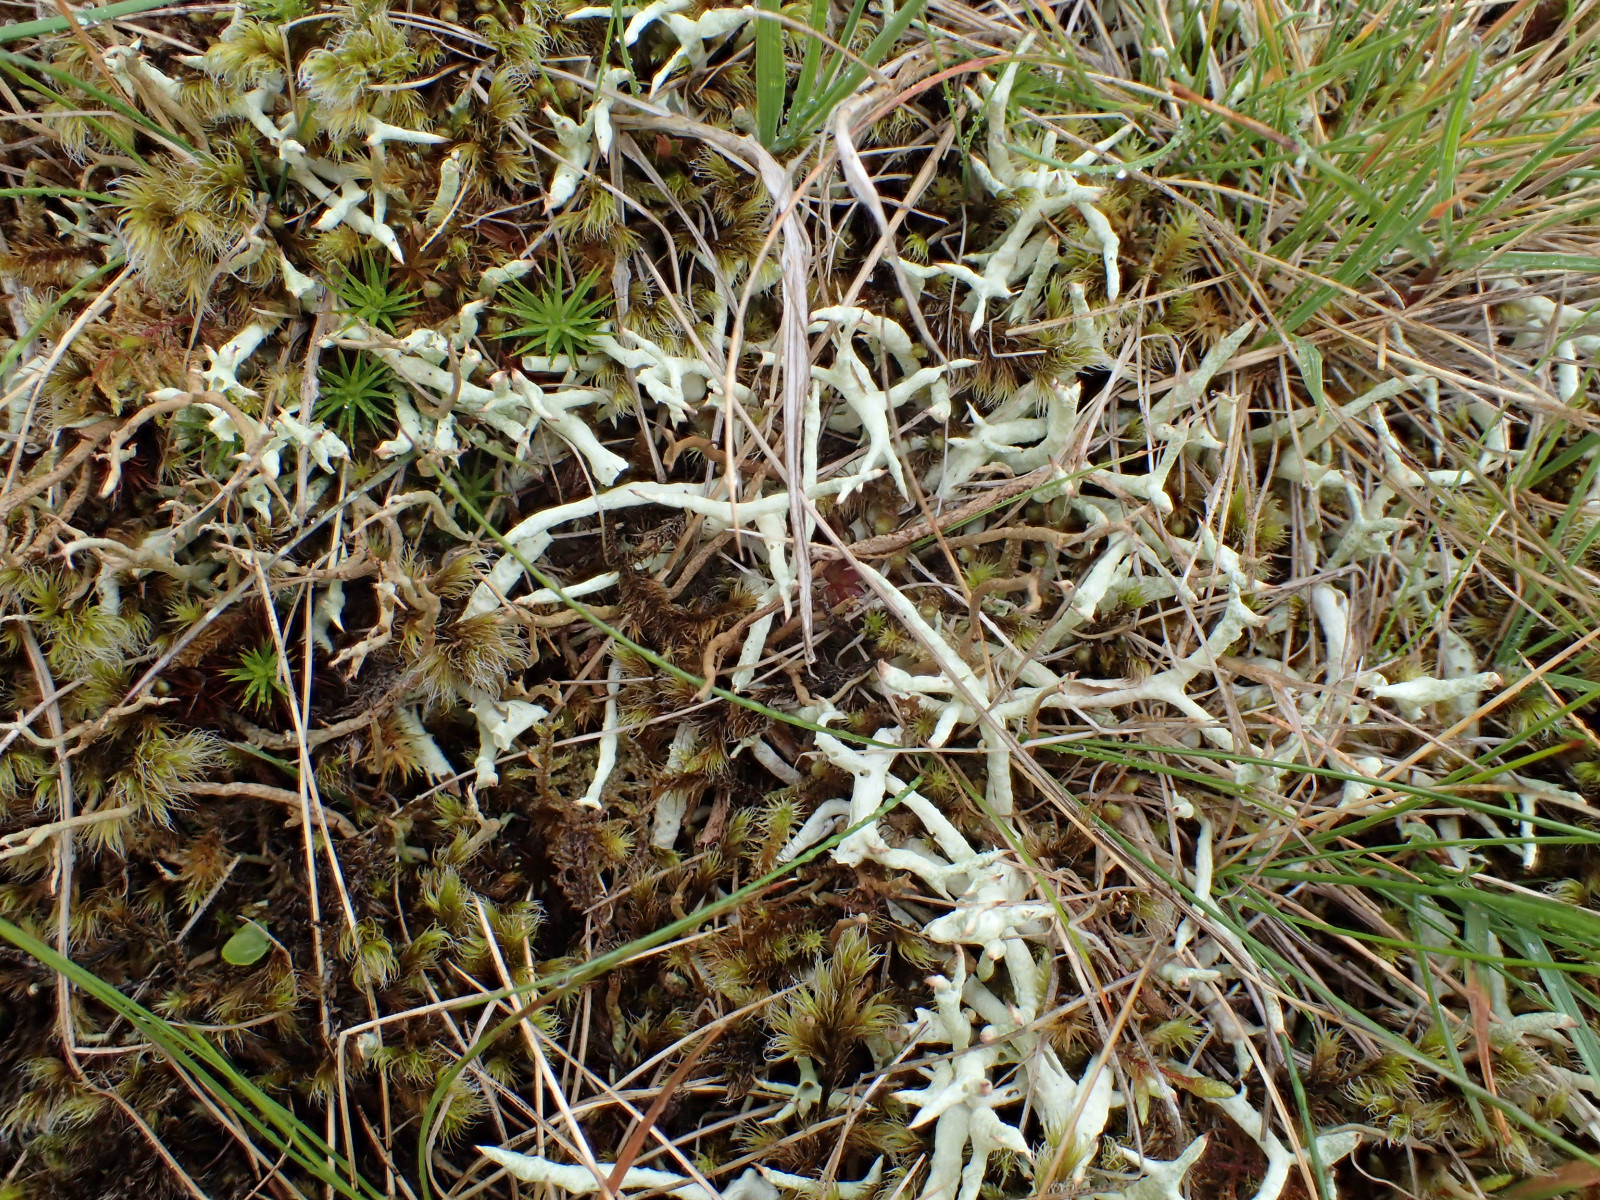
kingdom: Fungi
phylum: Ascomycota
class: Lecanoromycetes
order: Lecanorales
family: Cladoniaceae
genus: Cladonia
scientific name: Cladonia uncialis
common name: pigget bægerlav
